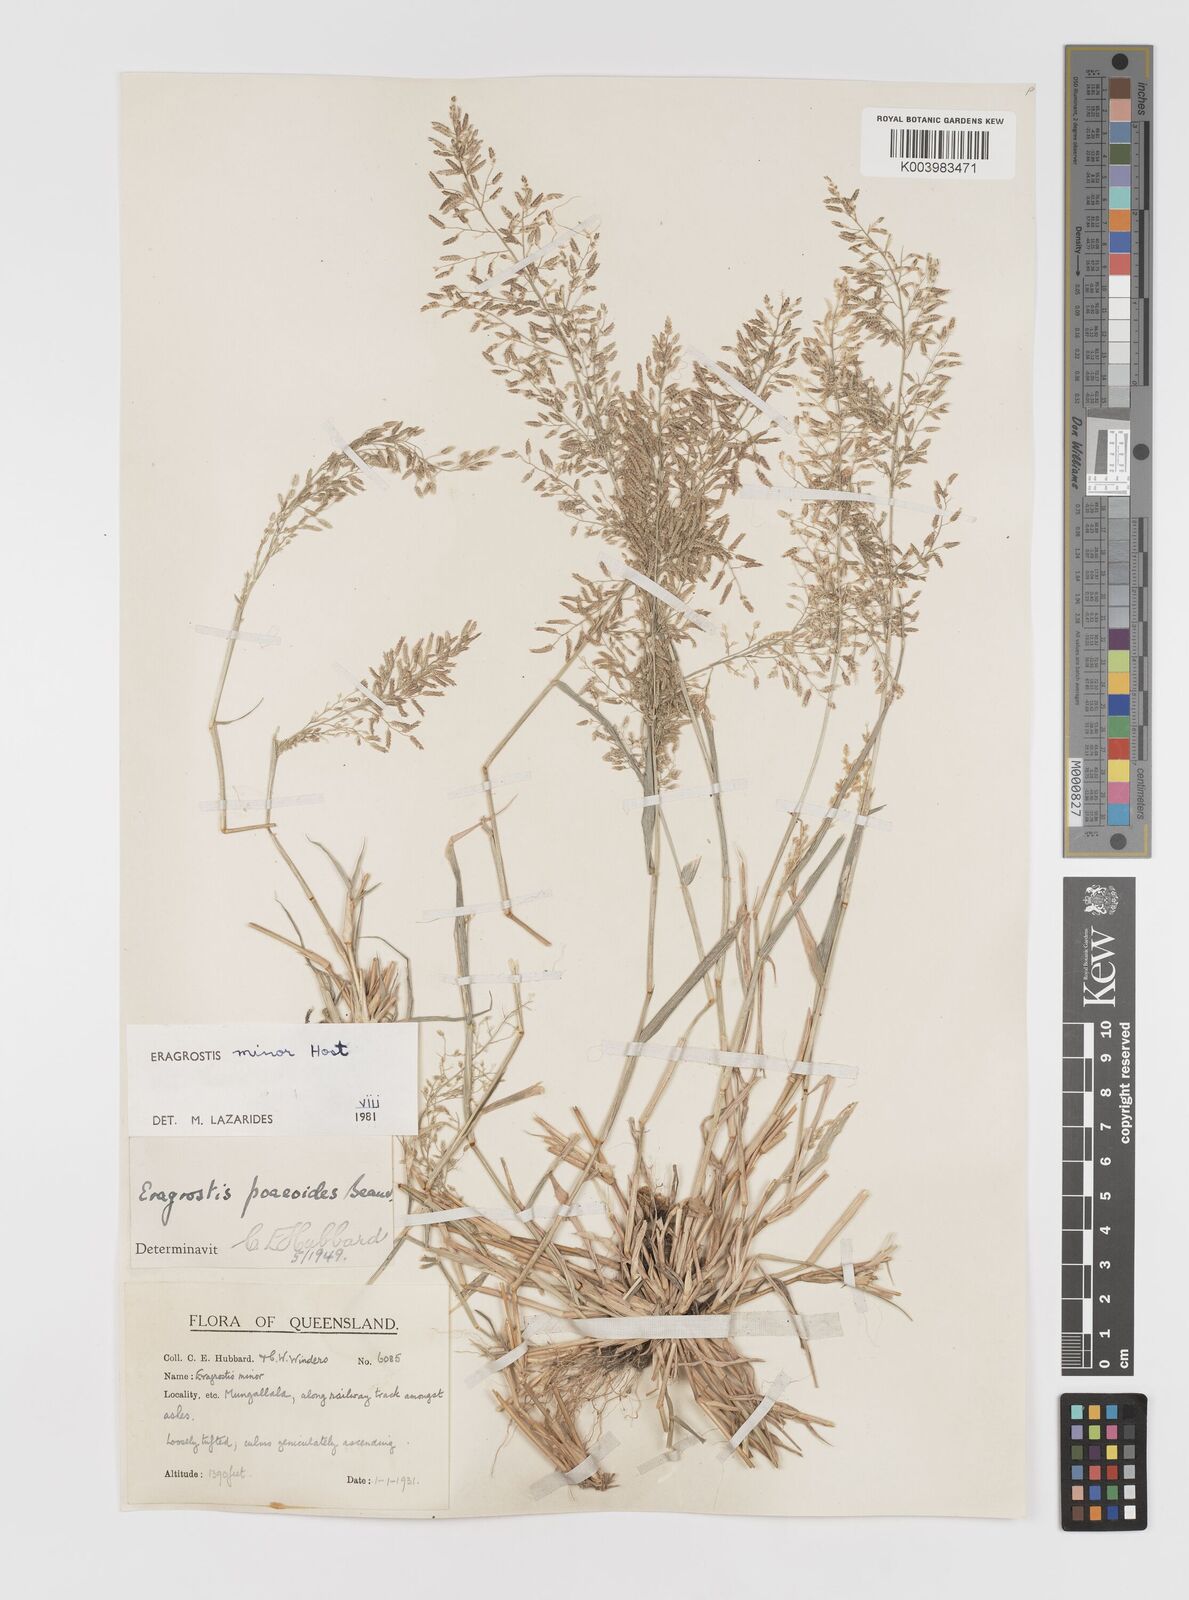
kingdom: Plantae
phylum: Tracheophyta
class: Liliopsida
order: Poales
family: Poaceae
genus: Eragrostis
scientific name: Eragrostis minor
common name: Small love-grass
